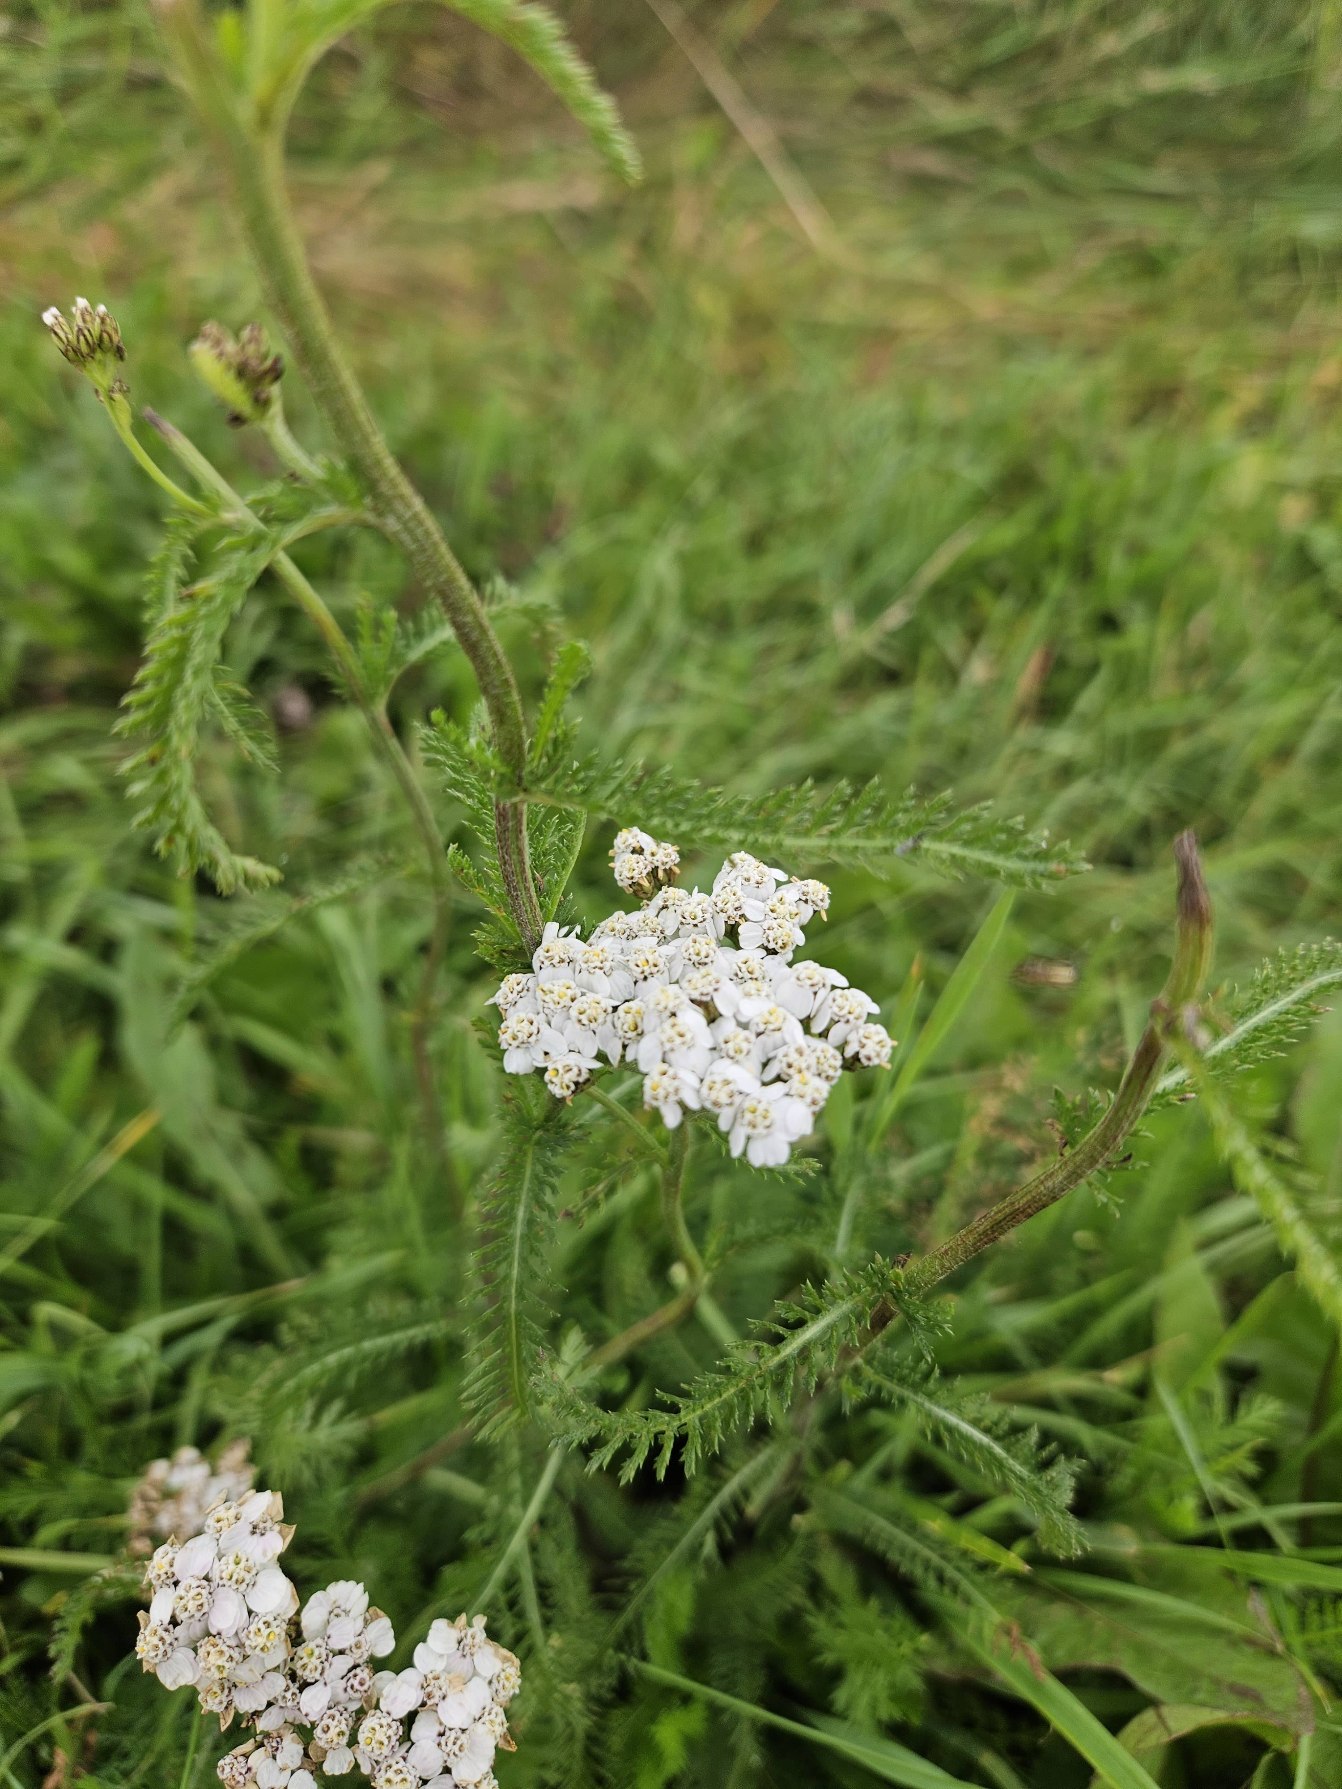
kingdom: Plantae
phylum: Tracheophyta
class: Magnoliopsida
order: Asterales
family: Asteraceae
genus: Achillea
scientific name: Achillea millefolium
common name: Almindelig røllike
